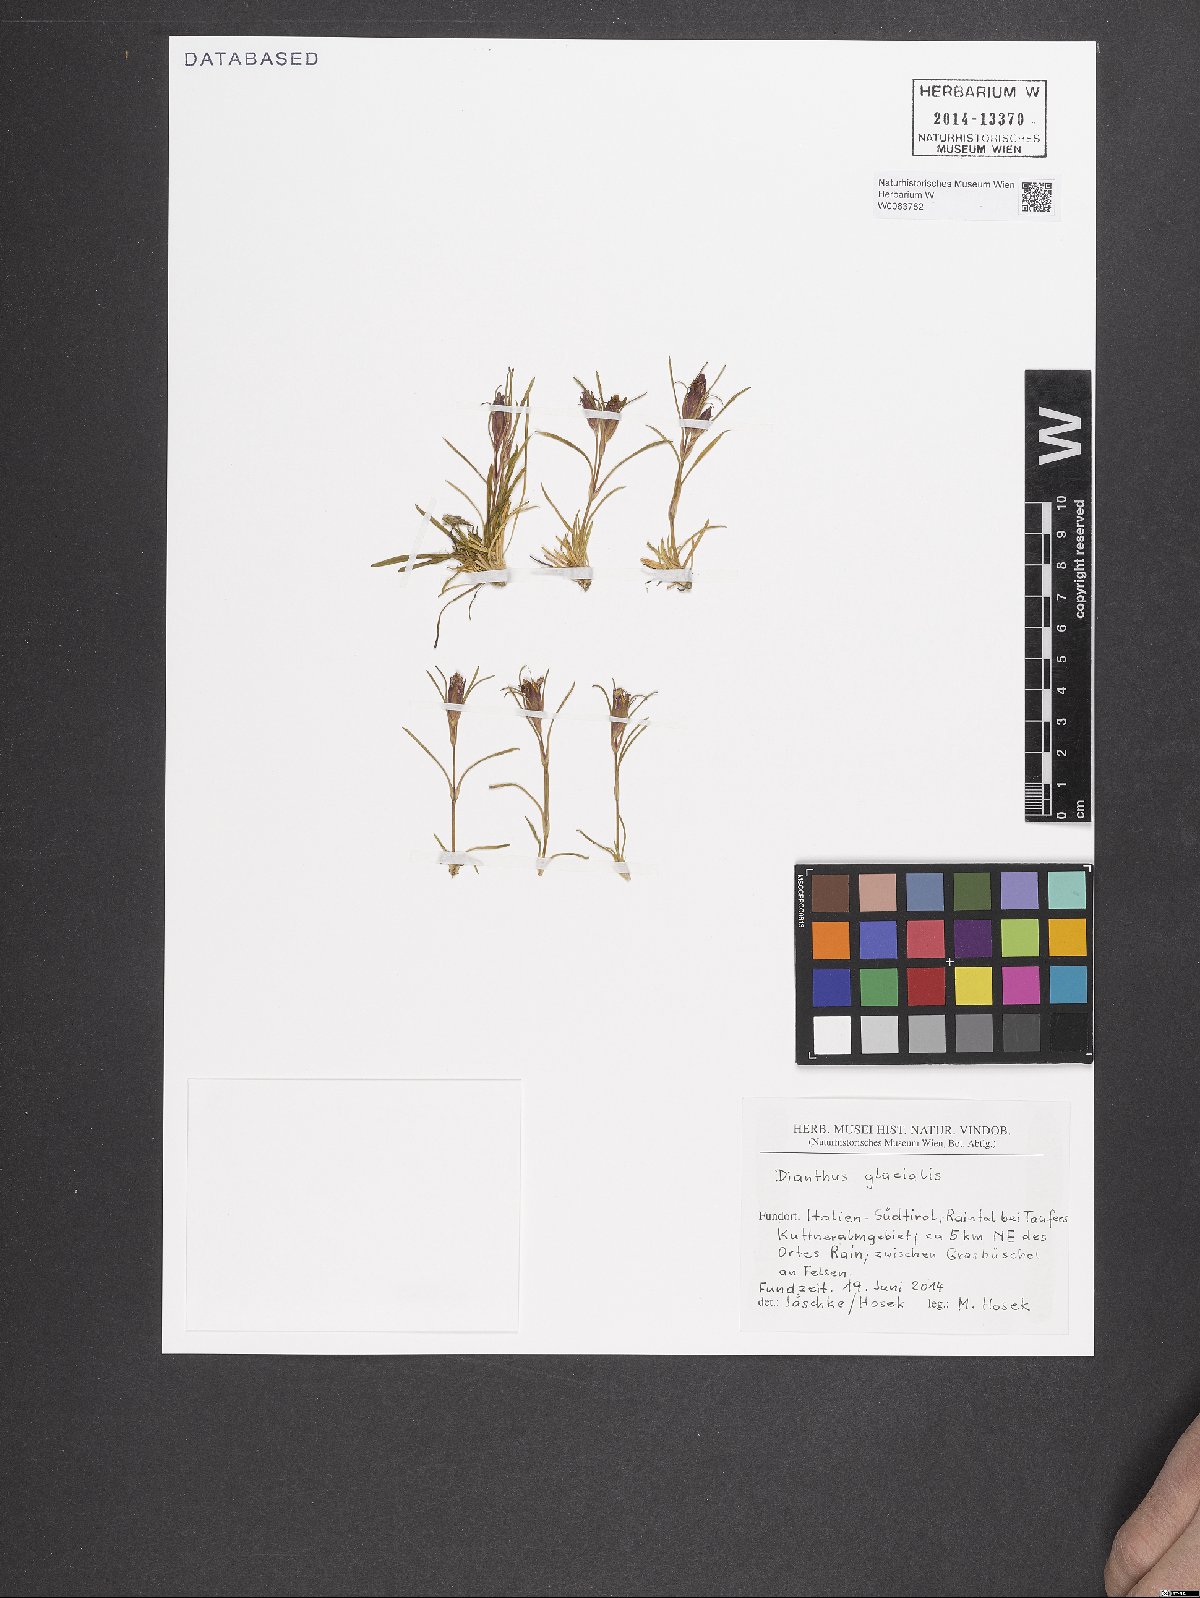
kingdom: Plantae
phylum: Tracheophyta
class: Magnoliopsida
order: Caryophyllales
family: Caryophyllaceae
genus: Dianthus
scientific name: Dianthus glacialis
